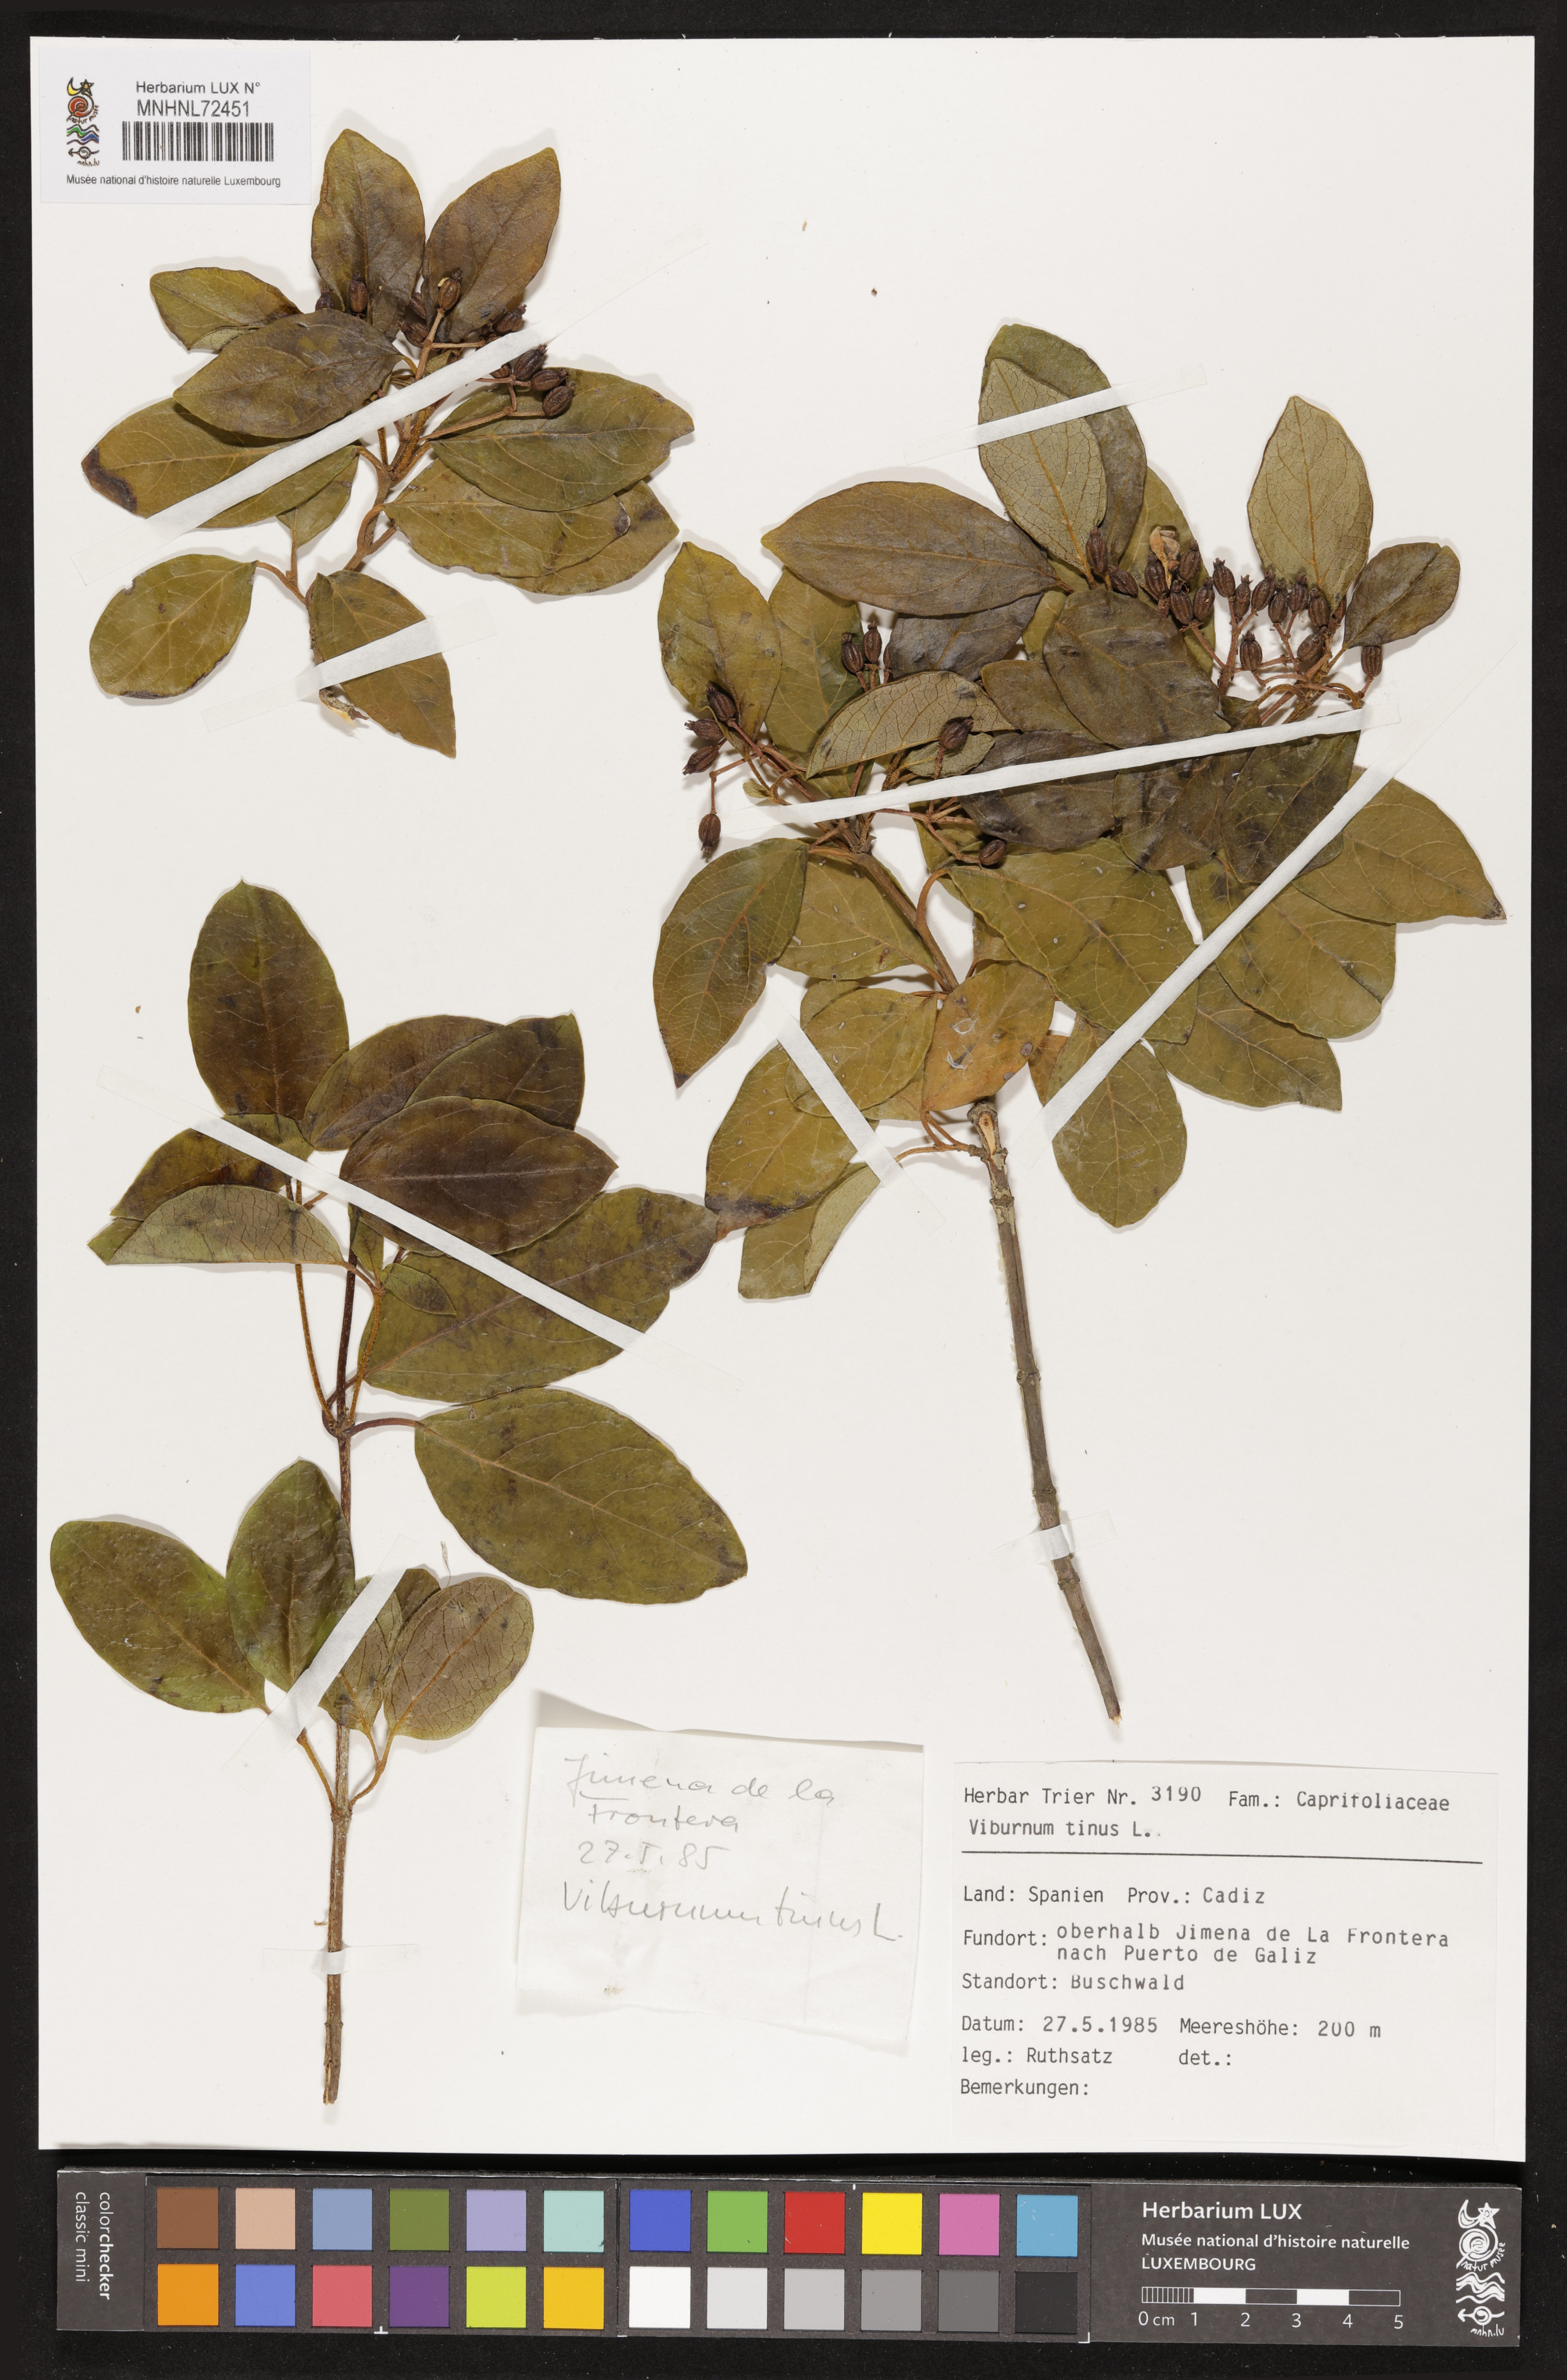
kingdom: Plantae
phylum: Tracheophyta
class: Magnoliopsida
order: Dipsacales
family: Viburnaceae
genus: Viburnum
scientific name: Viburnum tinus
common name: Laurustinus
